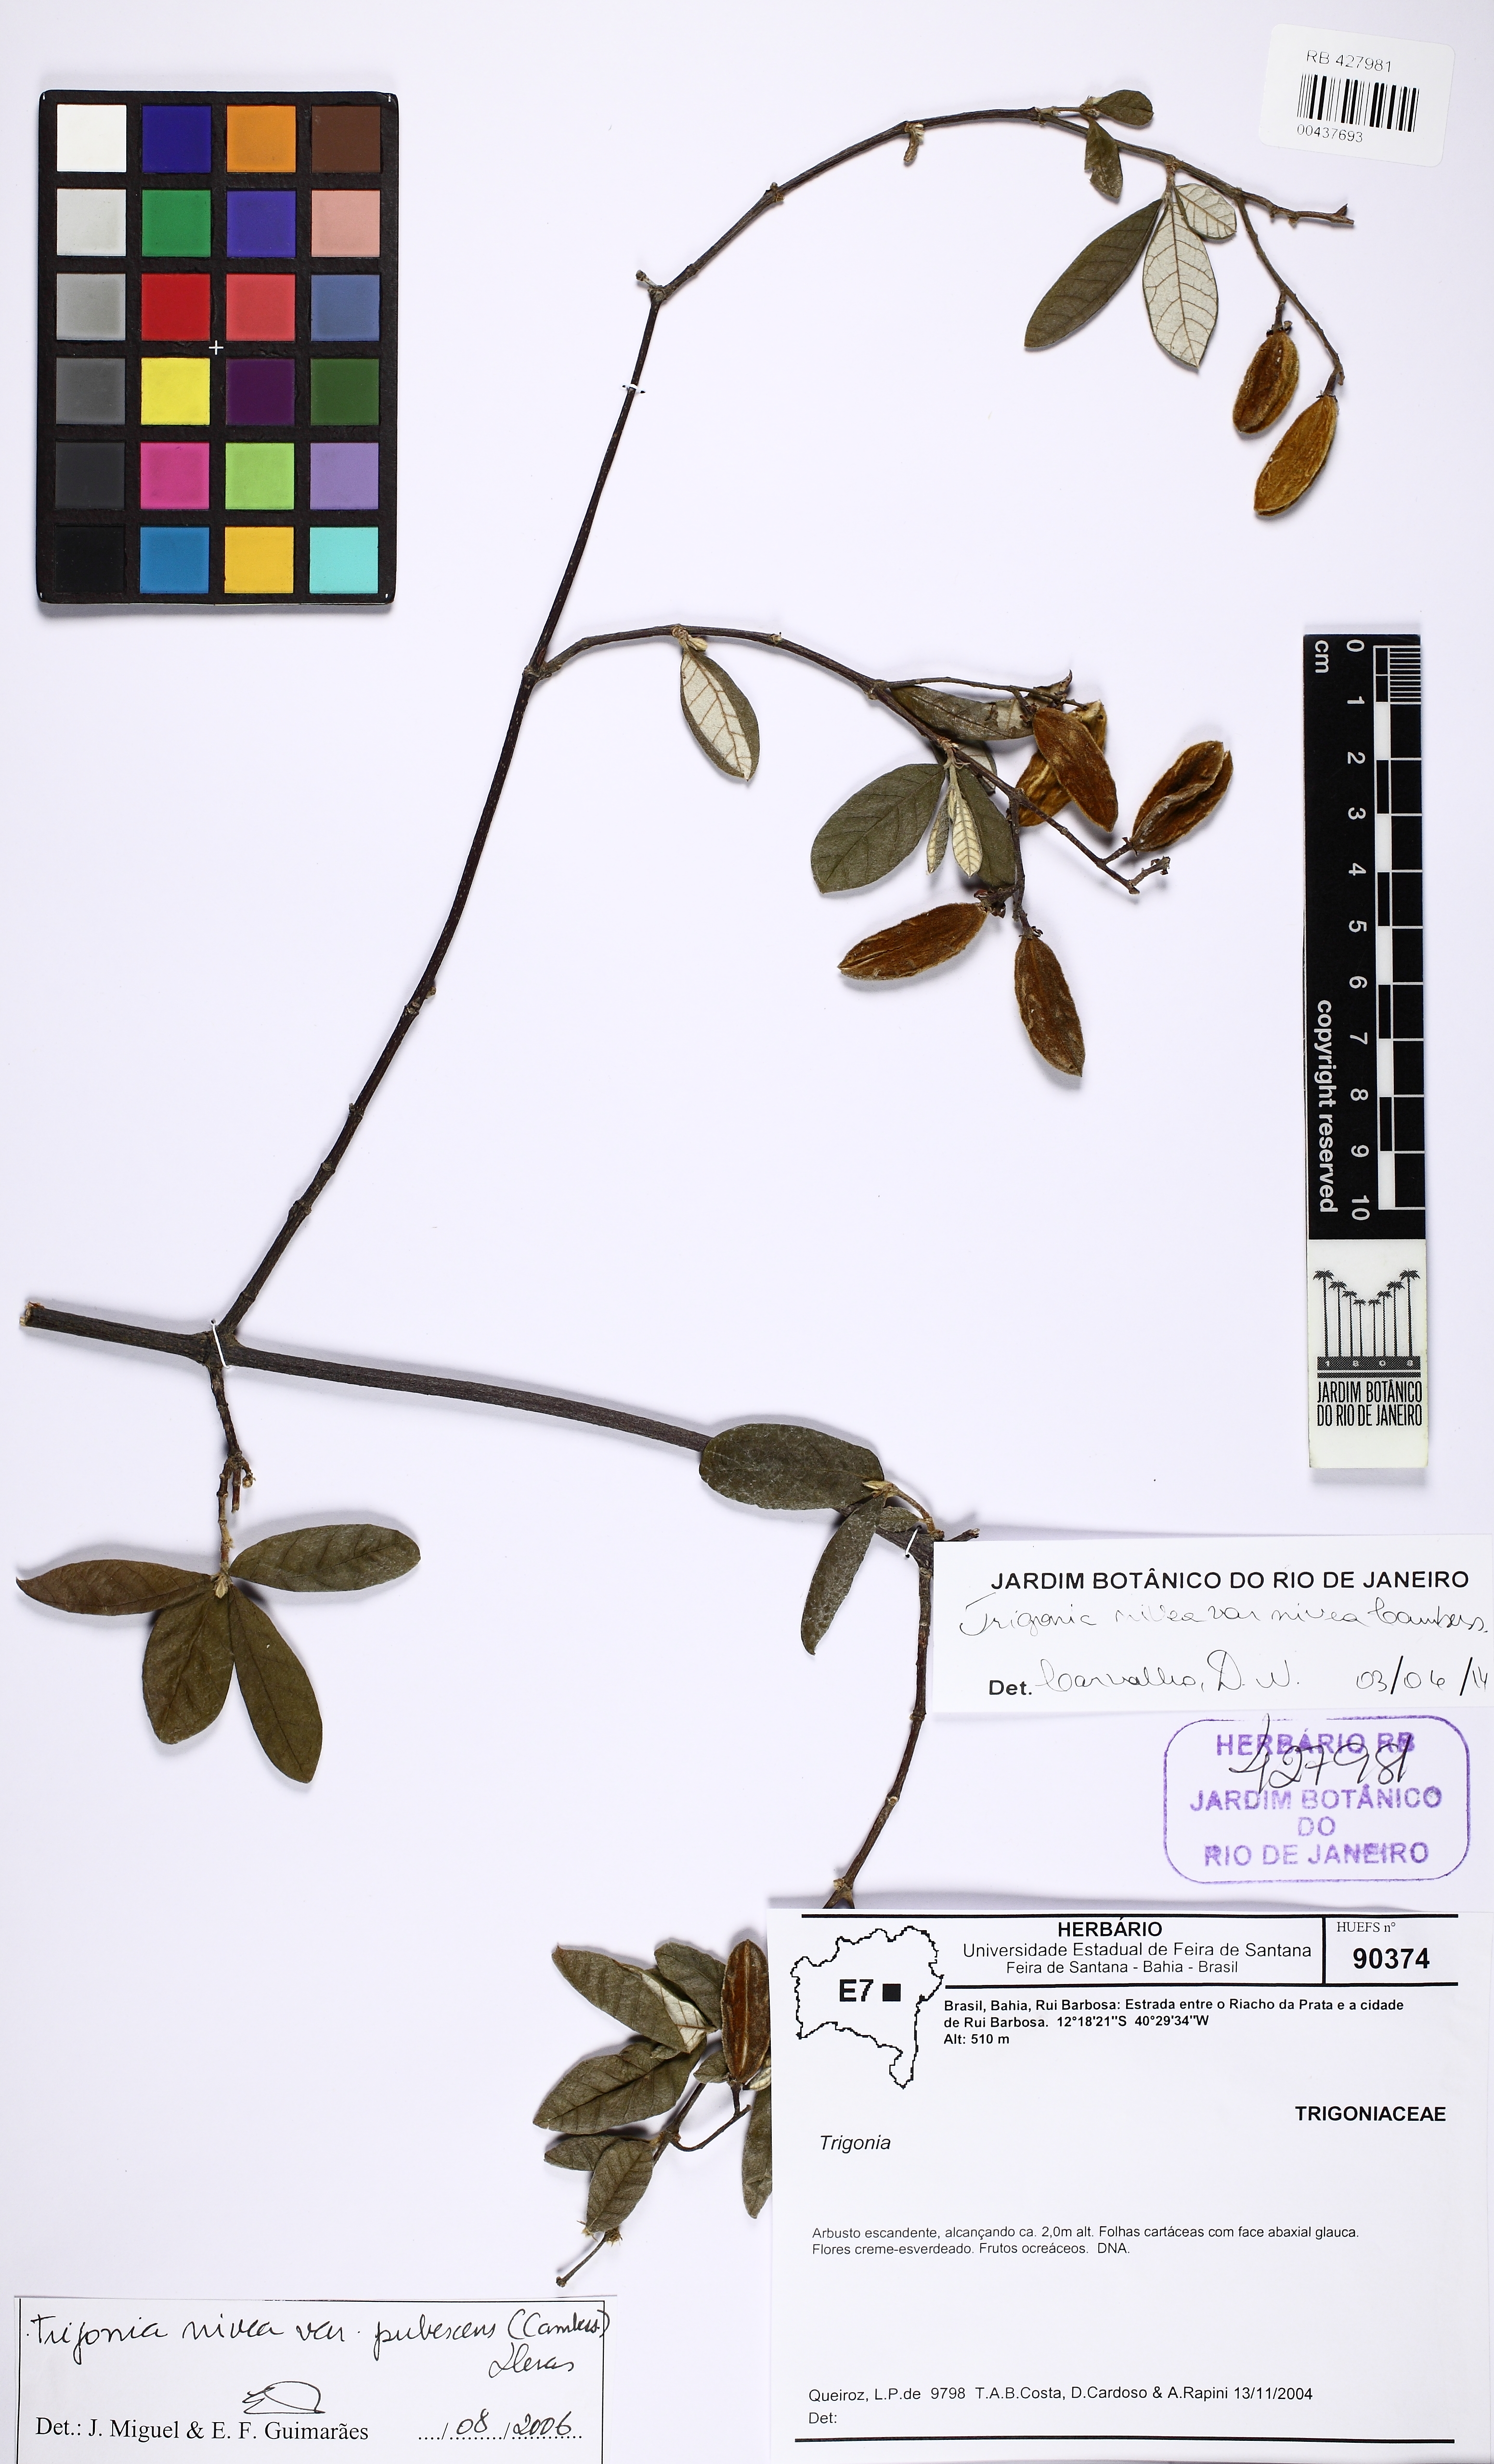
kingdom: Plantae
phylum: Tracheophyta
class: Magnoliopsida
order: Malpighiales
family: Trigoniaceae
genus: Trigonia
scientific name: Trigonia nivea
